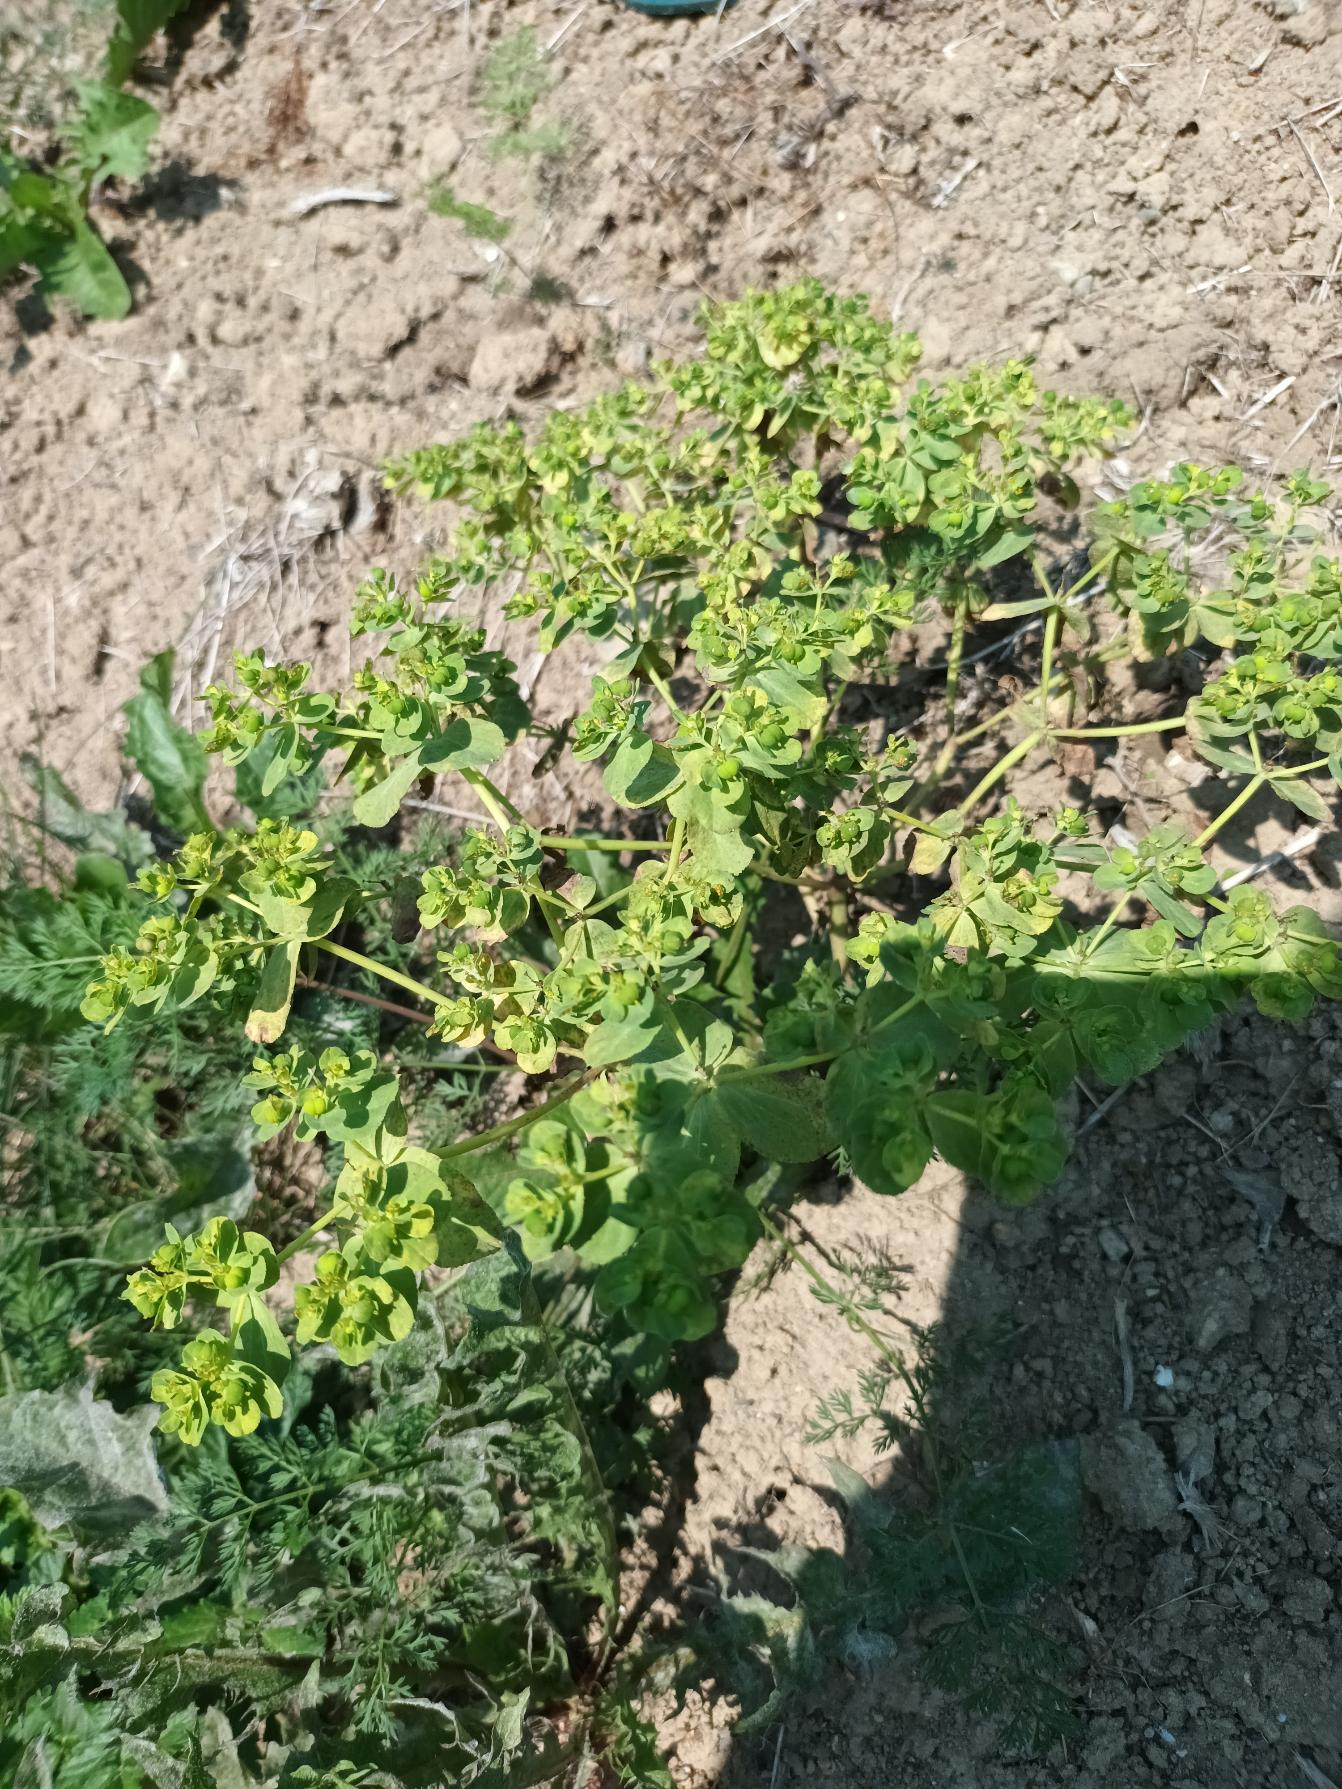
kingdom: Plantae
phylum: Tracheophyta
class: Magnoliopsida
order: Malpighiales
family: Euphorbiaceae
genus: Euphorbia
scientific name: Euphorbia helioscopia
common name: Skærm-vortemælk
